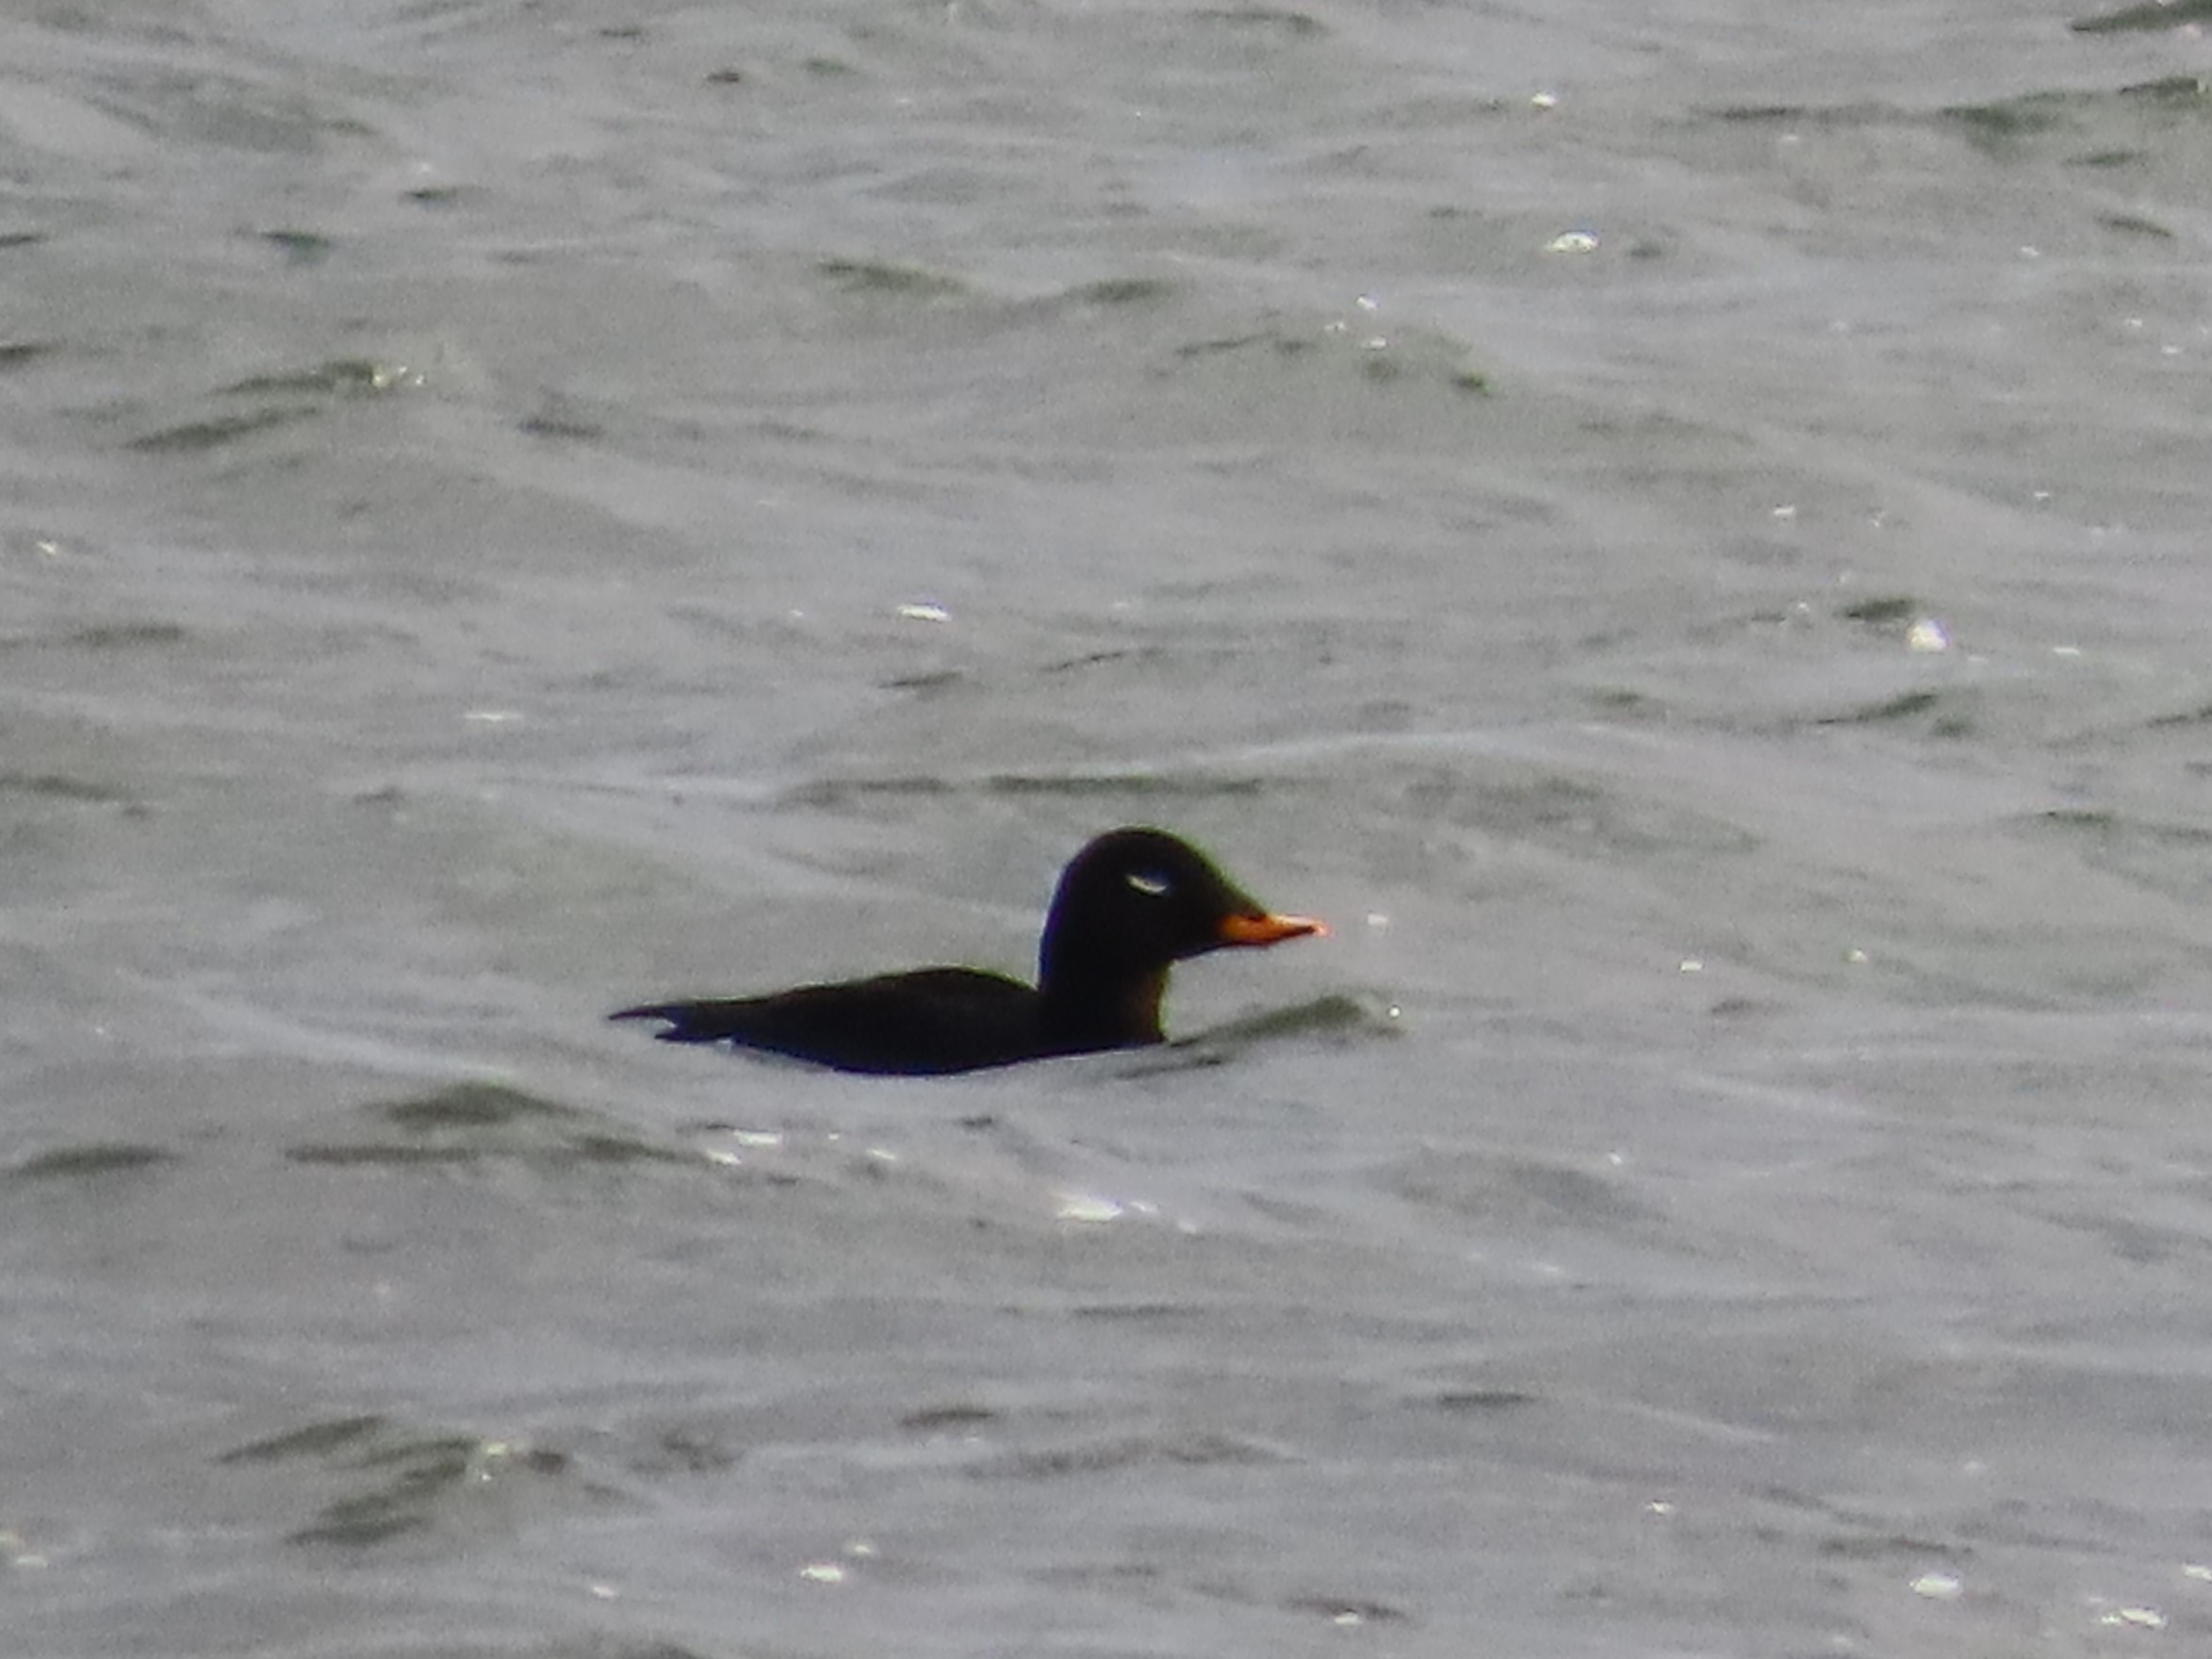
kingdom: Animalia
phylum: Chordata
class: Aves
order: Anseriformes
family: Anatidae
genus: Melanitta
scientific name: Melanitta fusca
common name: Fløjlsand
